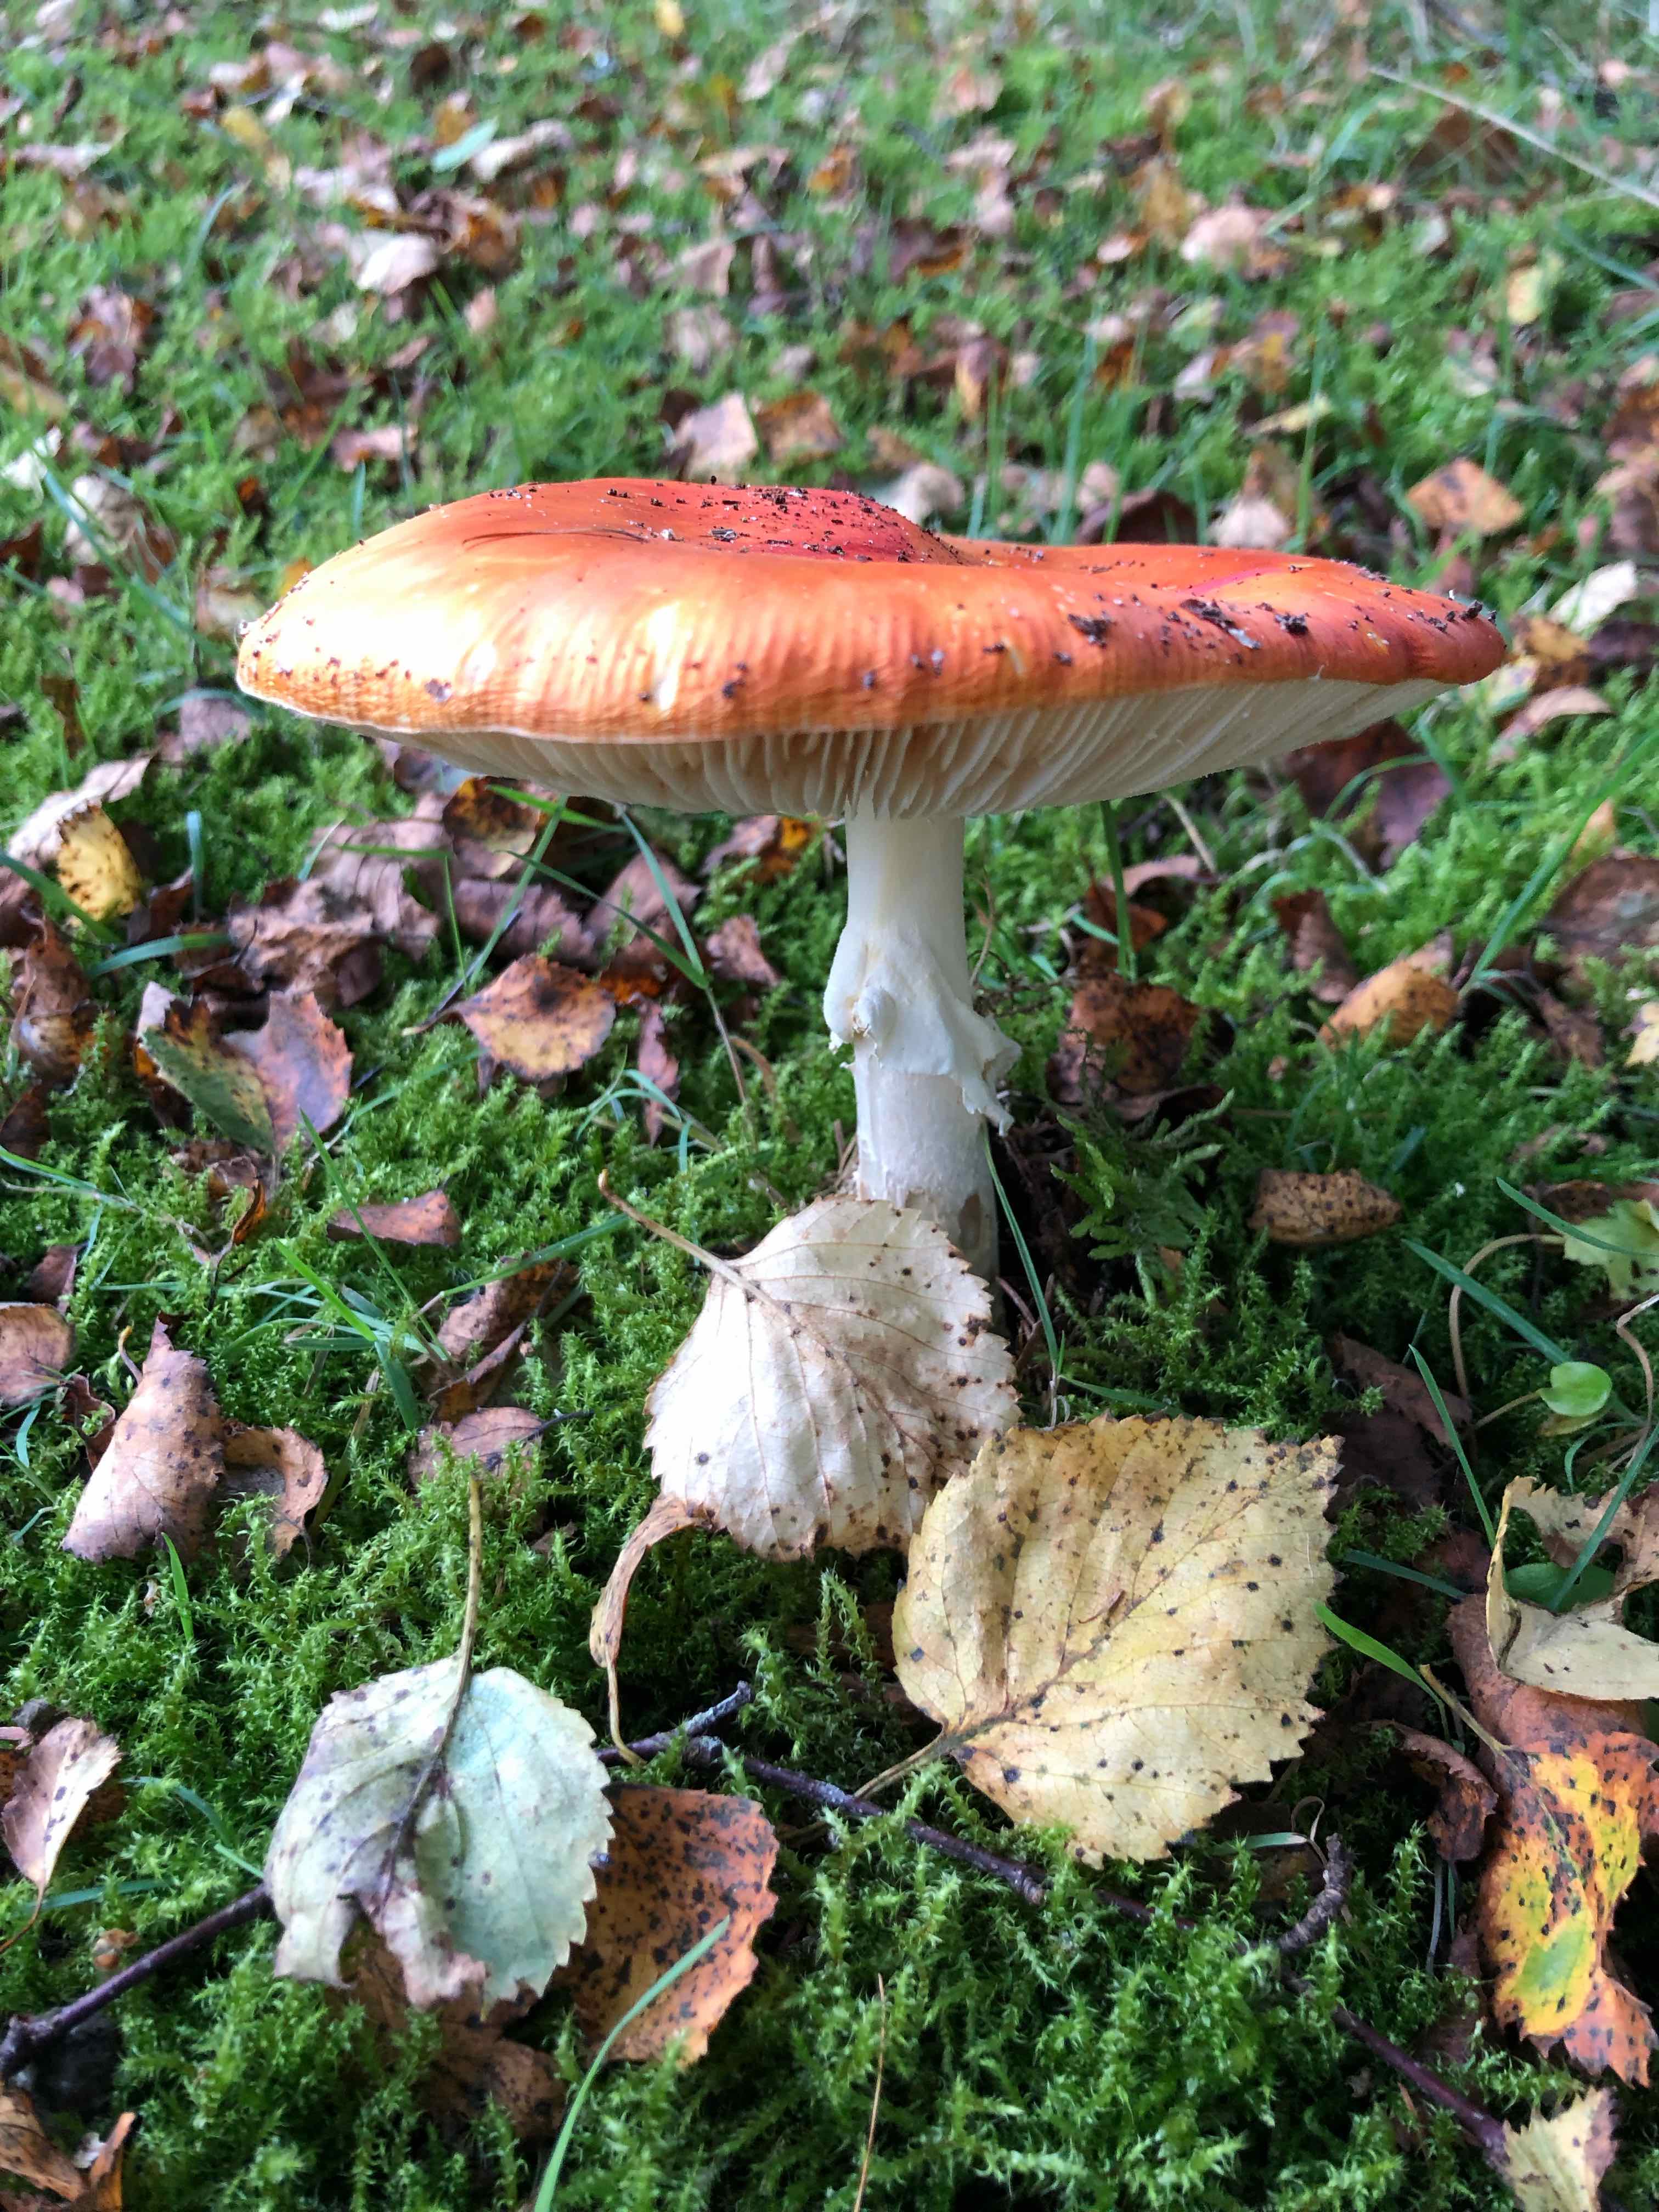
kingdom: Fungi
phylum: Basidiomycota
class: Agaricomycetes
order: Agaricales
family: Amanitaceae
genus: Amanita
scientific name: Amanita muscaria
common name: rød fluesvamp
